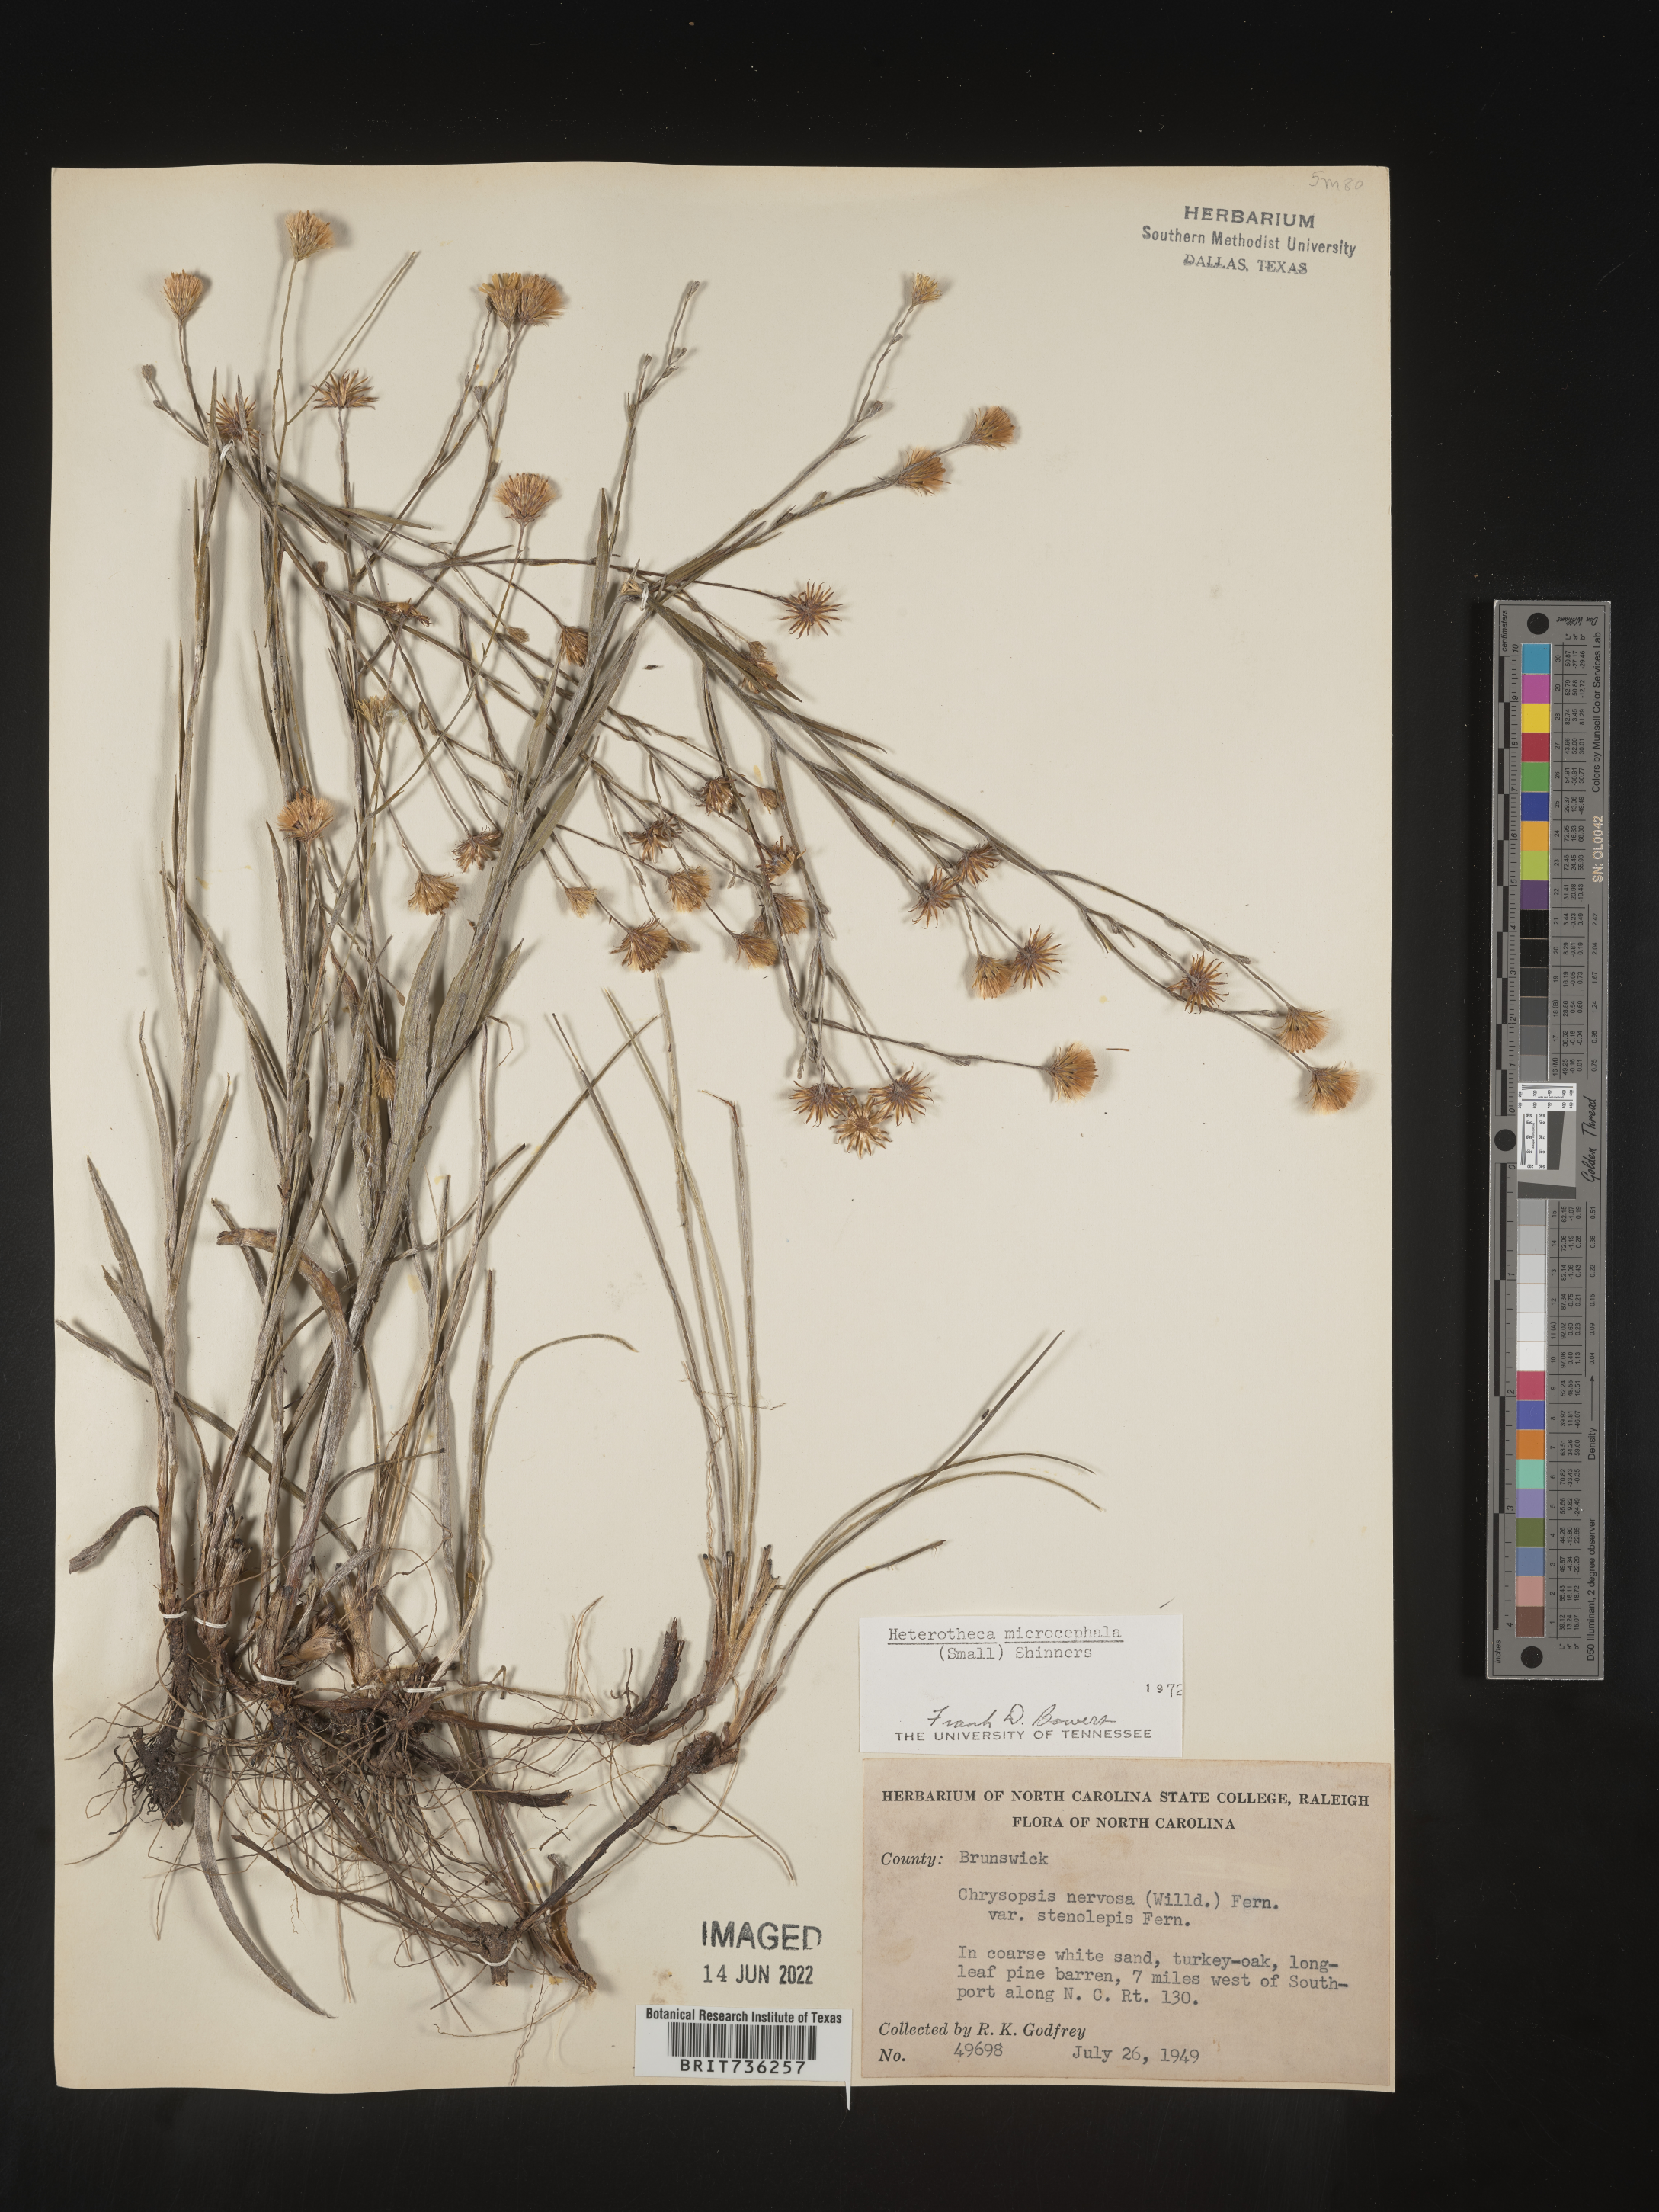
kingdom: Plantae
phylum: Tracheophyta
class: Magnoliopsida
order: Asterales
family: Asteraceae
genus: Pityopsis
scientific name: Pityopsis graminifolia
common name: Grass-leaf golden-aster
